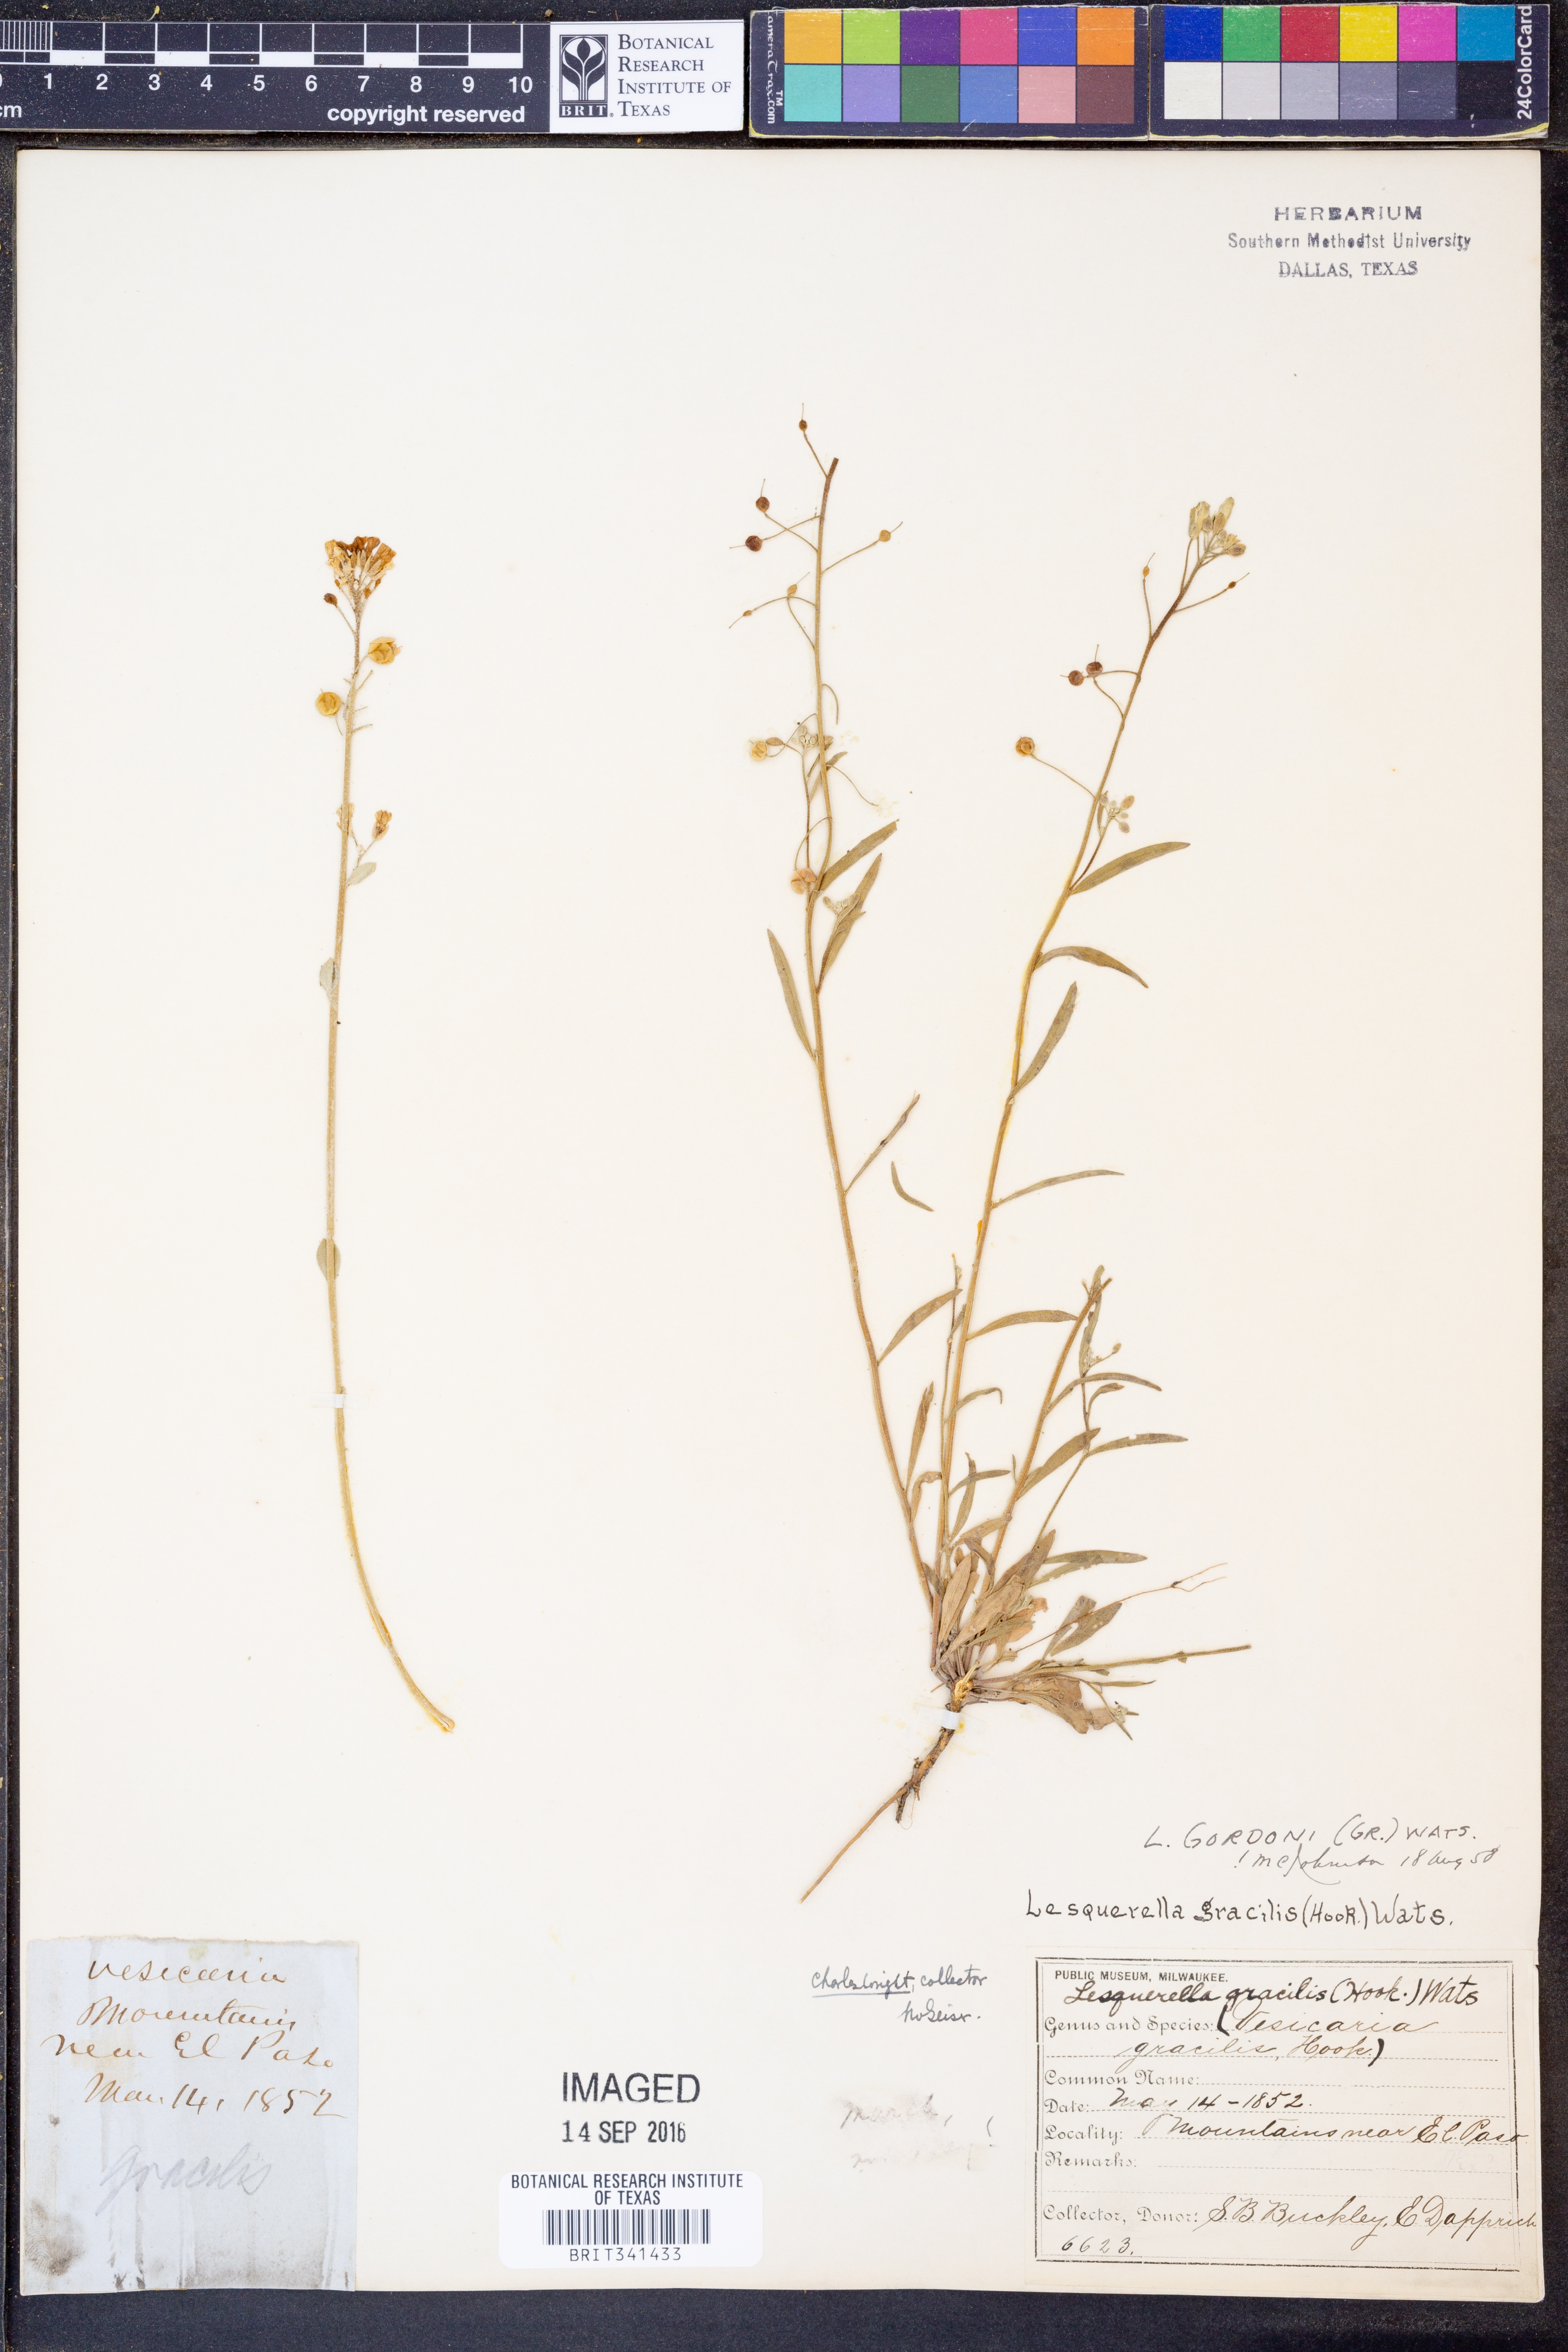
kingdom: Plantae
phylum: Tracheophyta
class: Magnoliopsida
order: Brassicales
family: Brassicaceae
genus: Physaria
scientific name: Physaria gordonii
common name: Gordon's bladderpod
